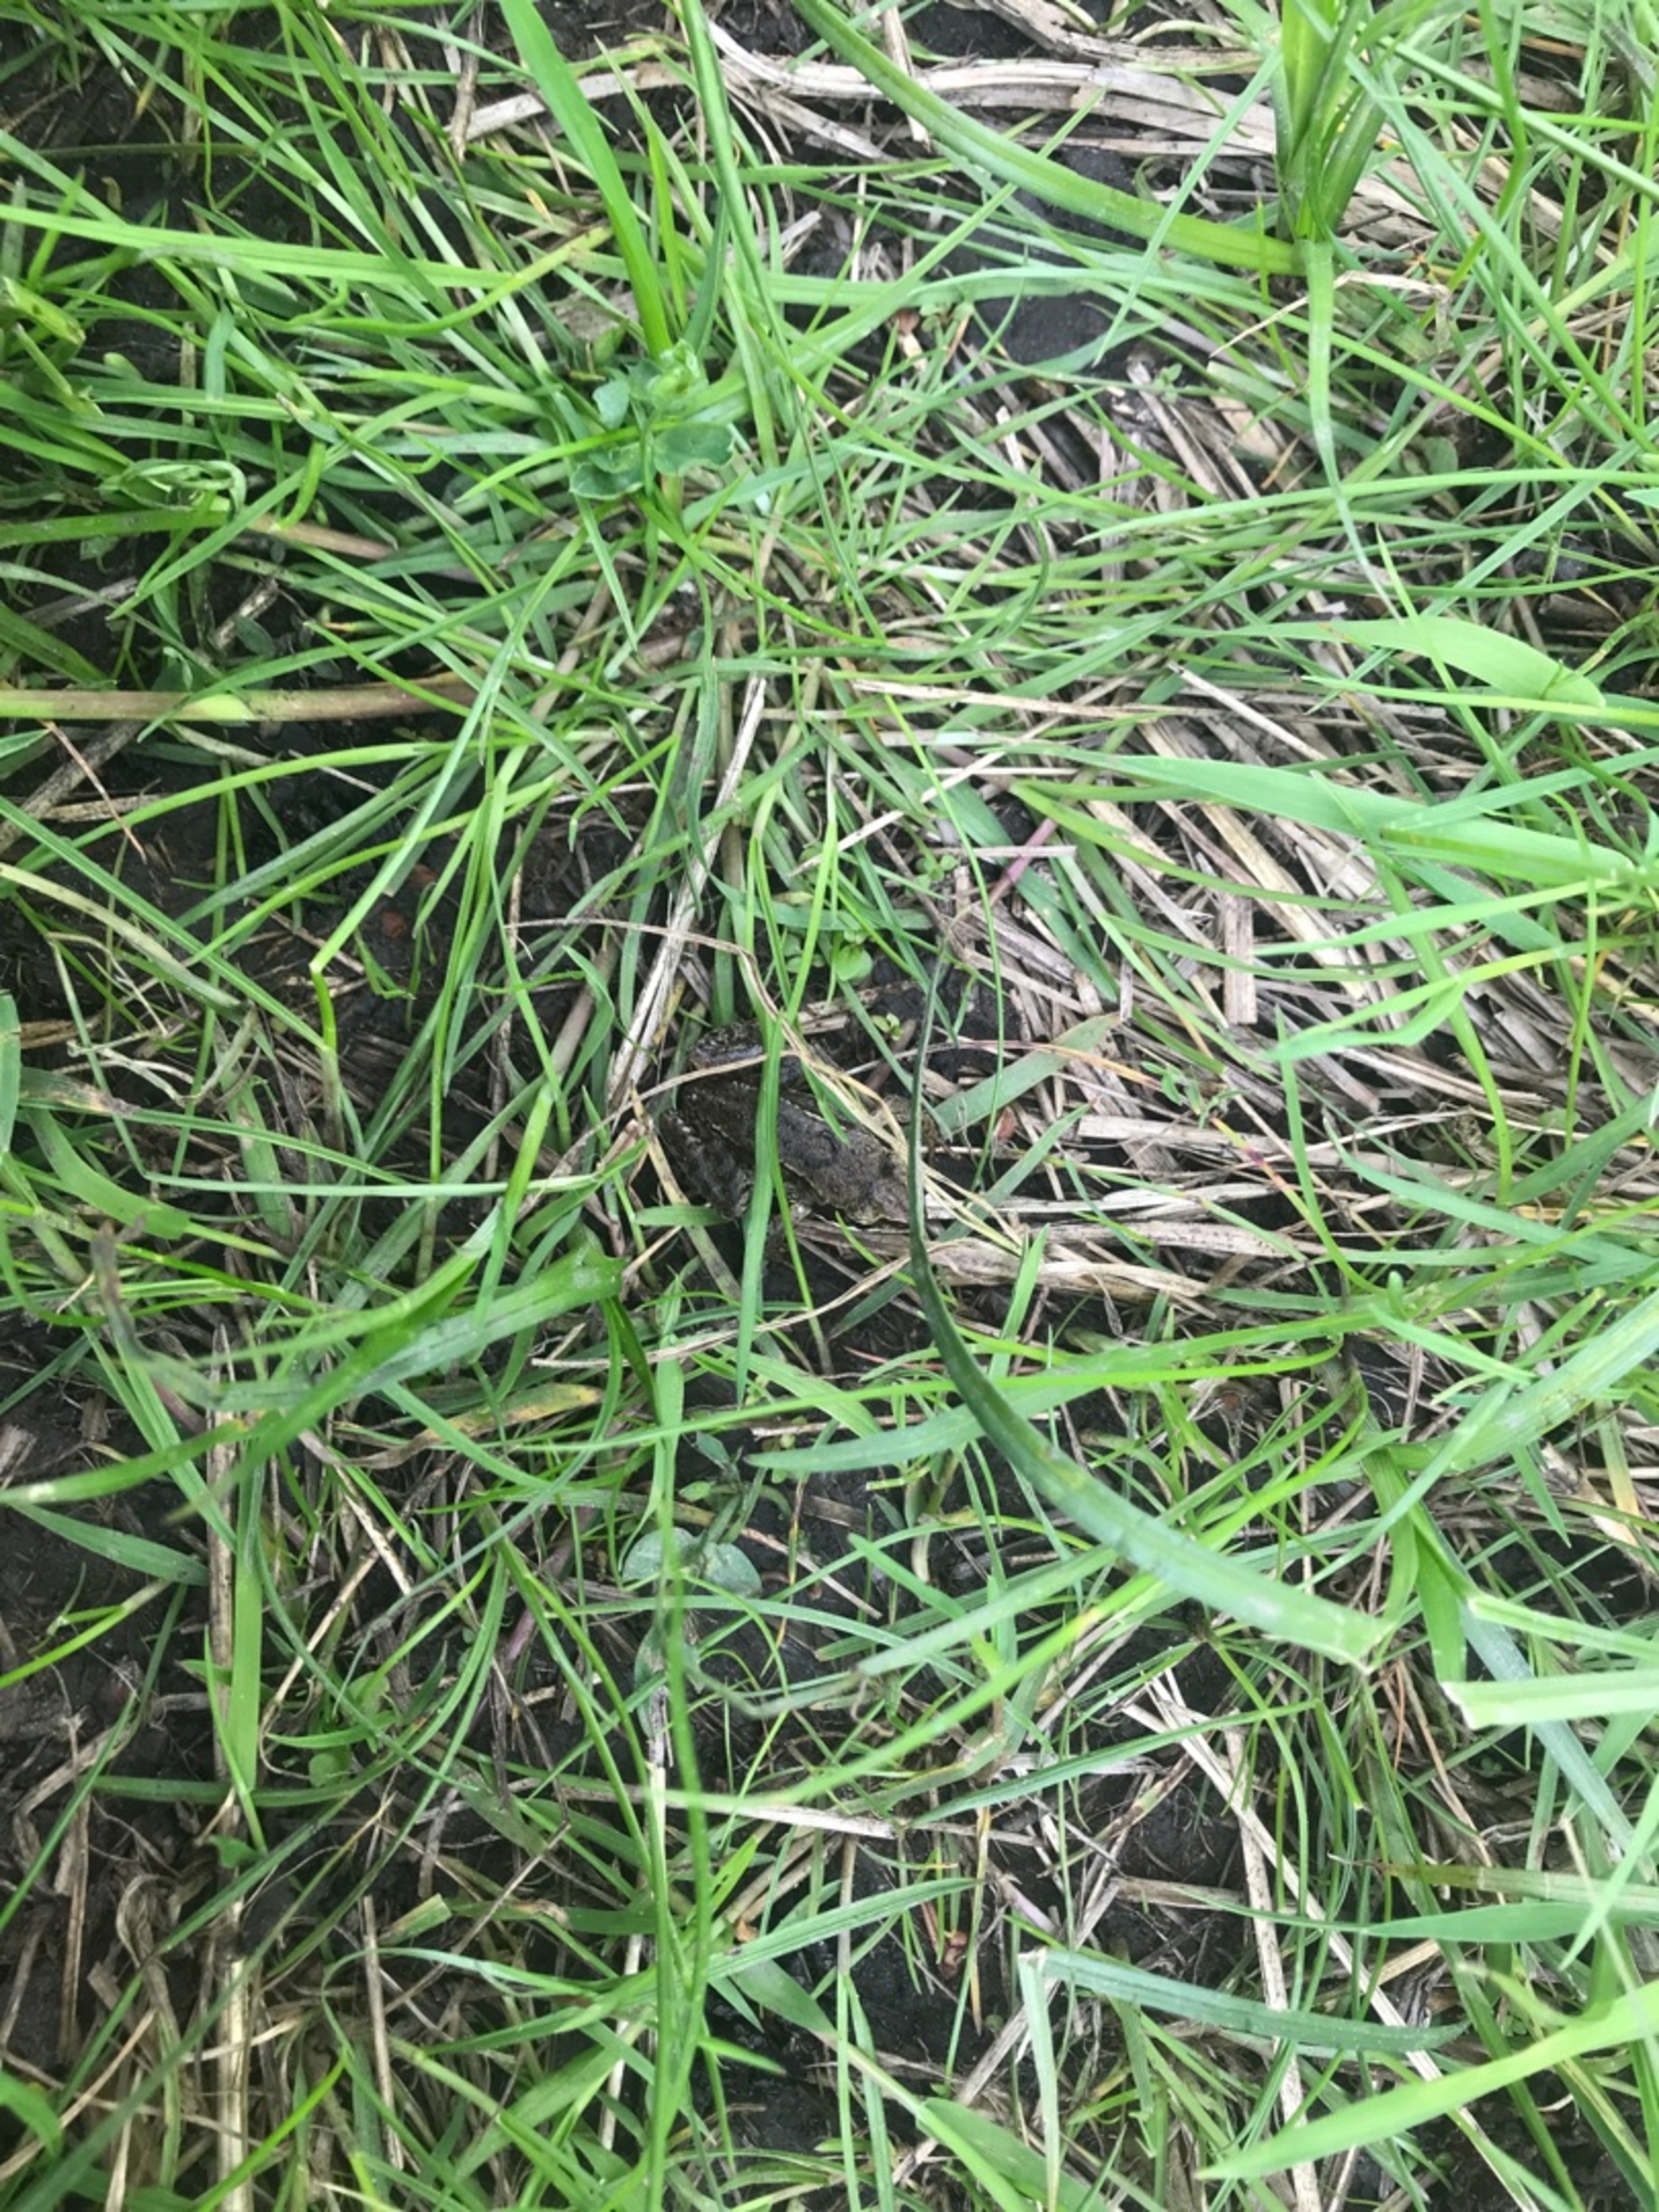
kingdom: Animalia
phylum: Chordata
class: Amphibia
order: Anura
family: Ranidae
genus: Rana
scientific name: Rana arvalis
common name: Spidssnudet frø
